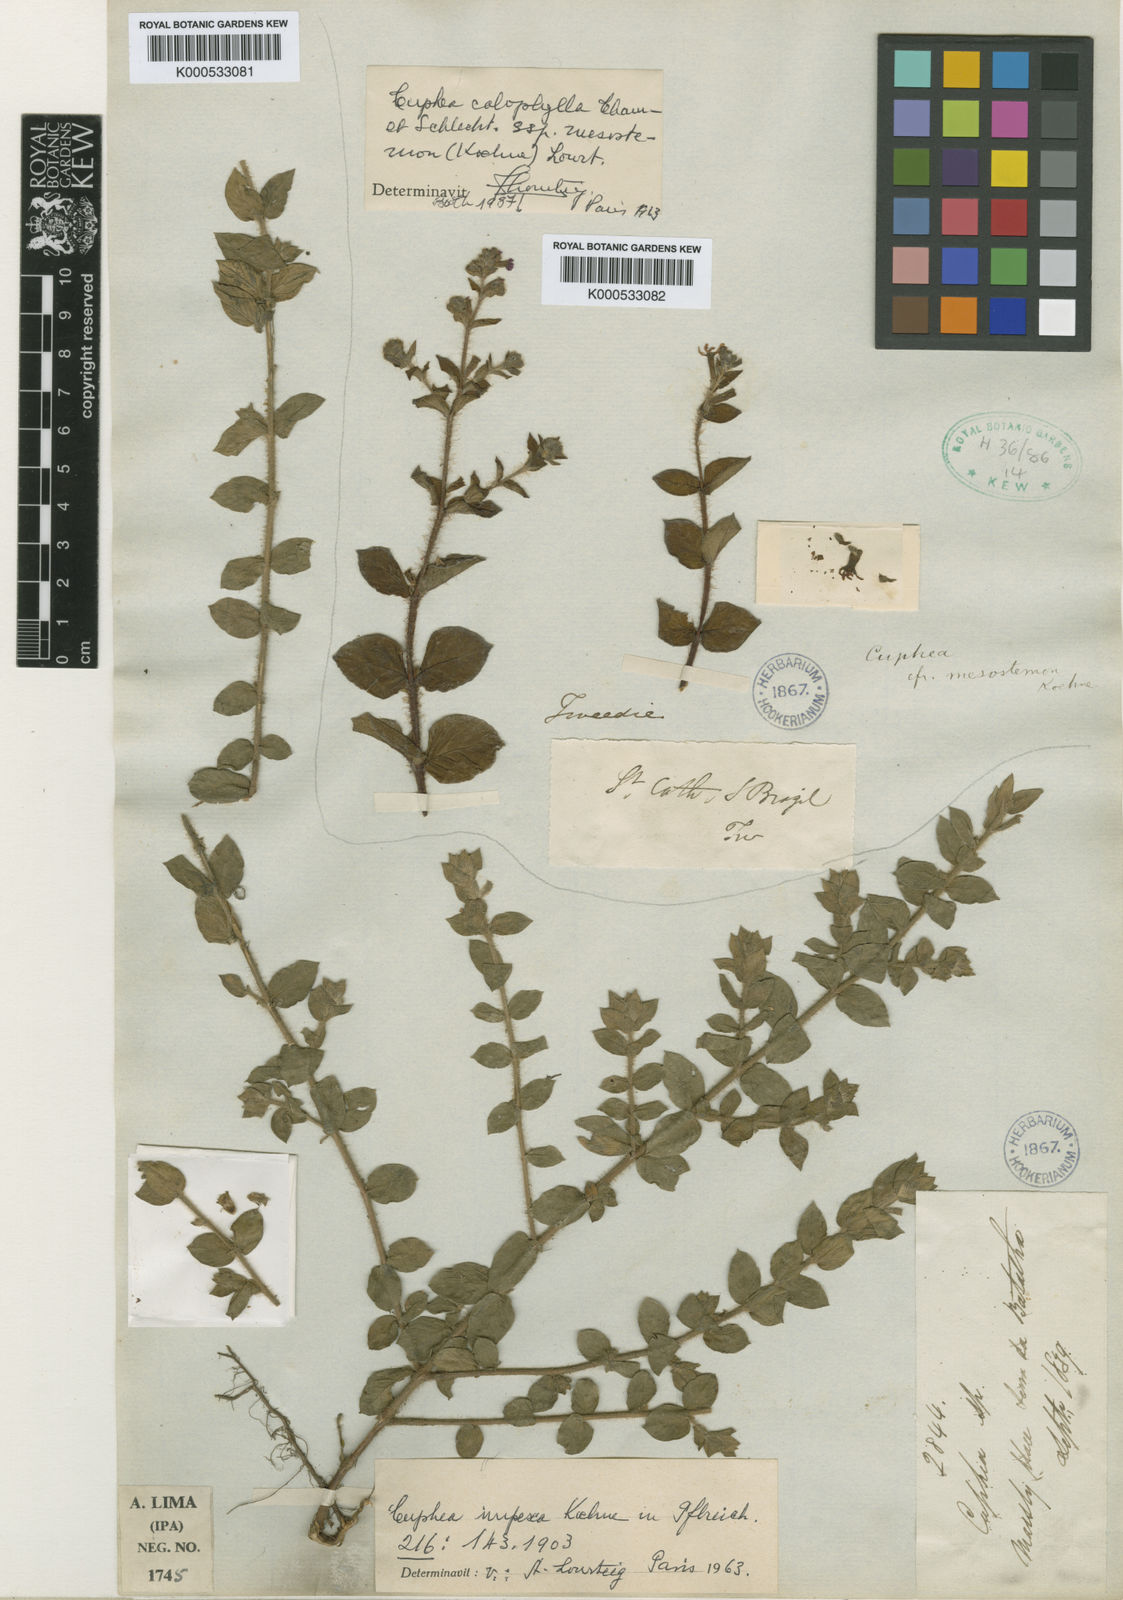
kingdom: Plantae
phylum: Tracheophyta
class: Magnoliopsida
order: Myrtales
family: Lythraceae
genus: Cuphea
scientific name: Cuphea sessilifolia
